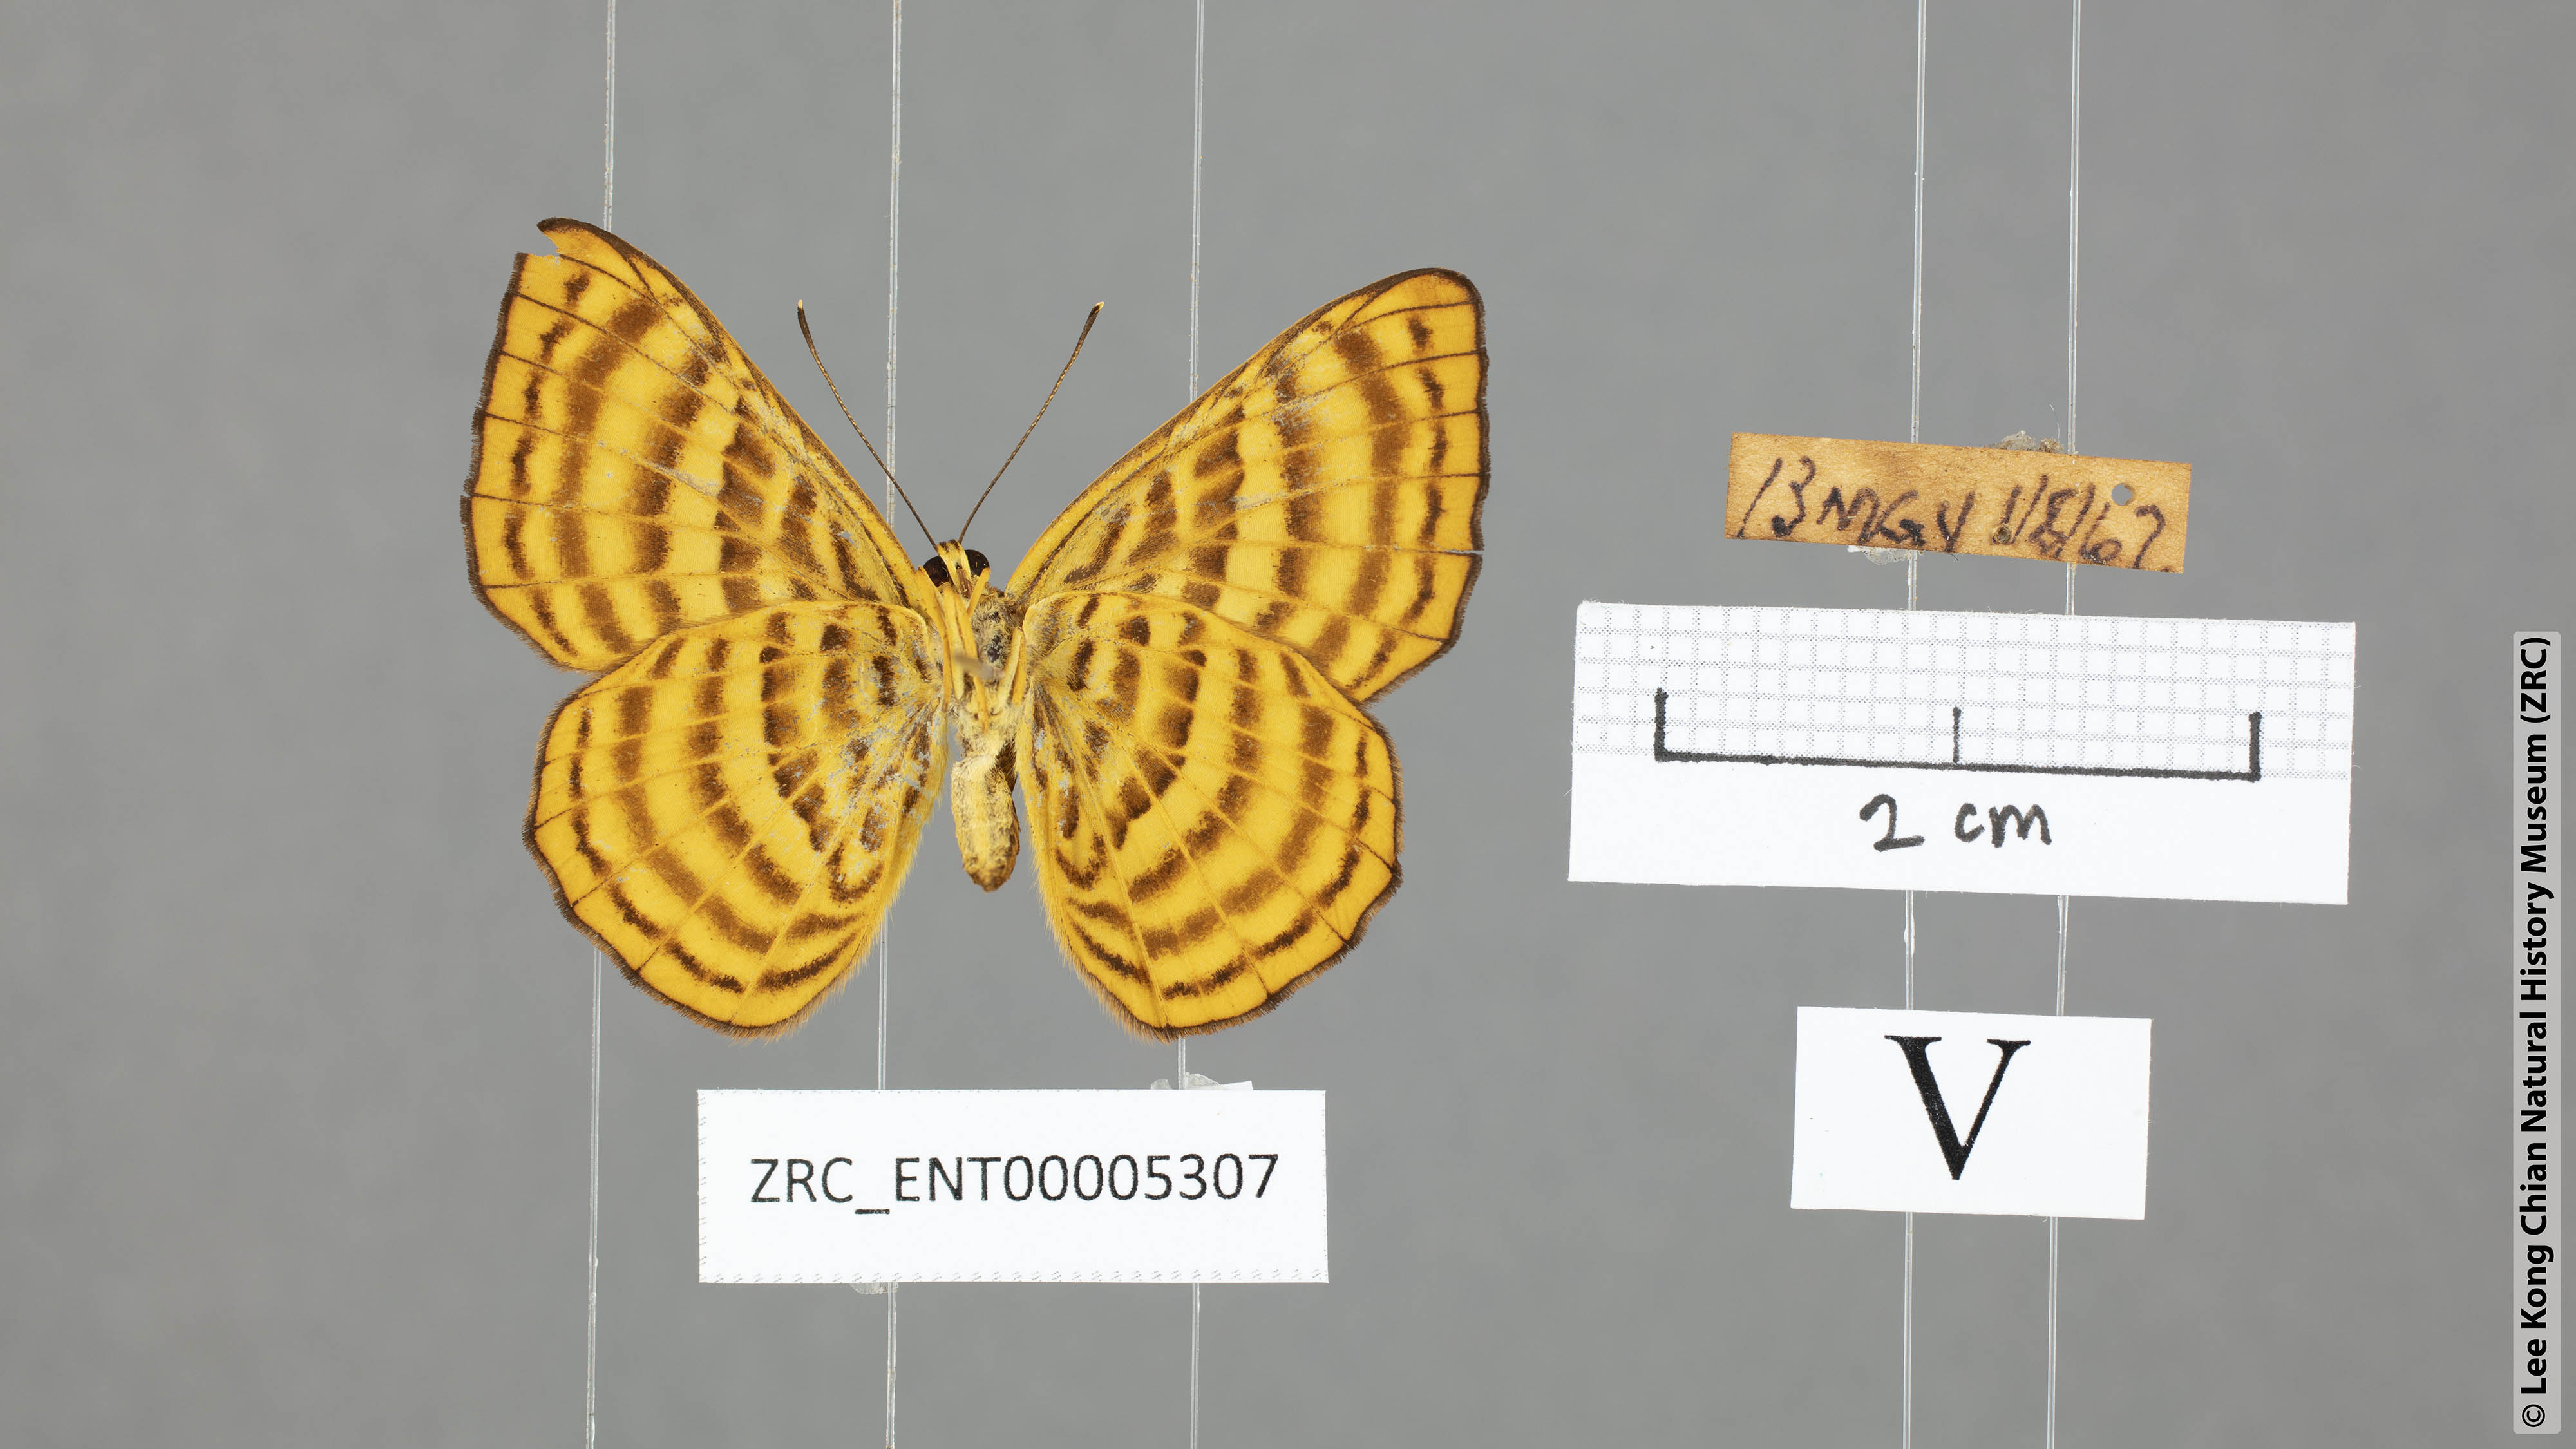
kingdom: Animalia
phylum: Arthropoda
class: Insecta
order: Lepidoptera
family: Riodinidae
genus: Zemeros
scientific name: Zemeros emesoides
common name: Malay punchinello
